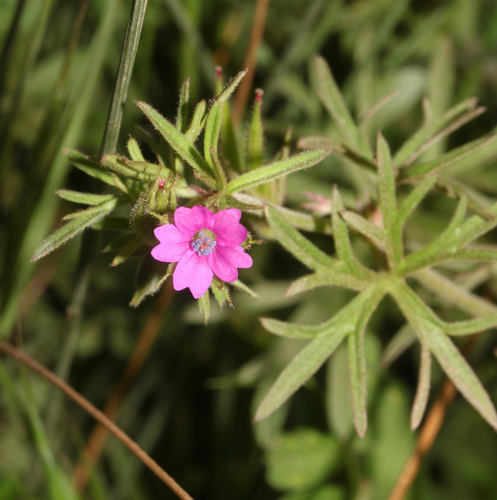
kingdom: Plantae
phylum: Tracheophyta
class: Magnoliopsida
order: Geraniales
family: Geraniaceae
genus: Geranium
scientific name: Geranium dissectum
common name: Cut-leaved crane's-bill
